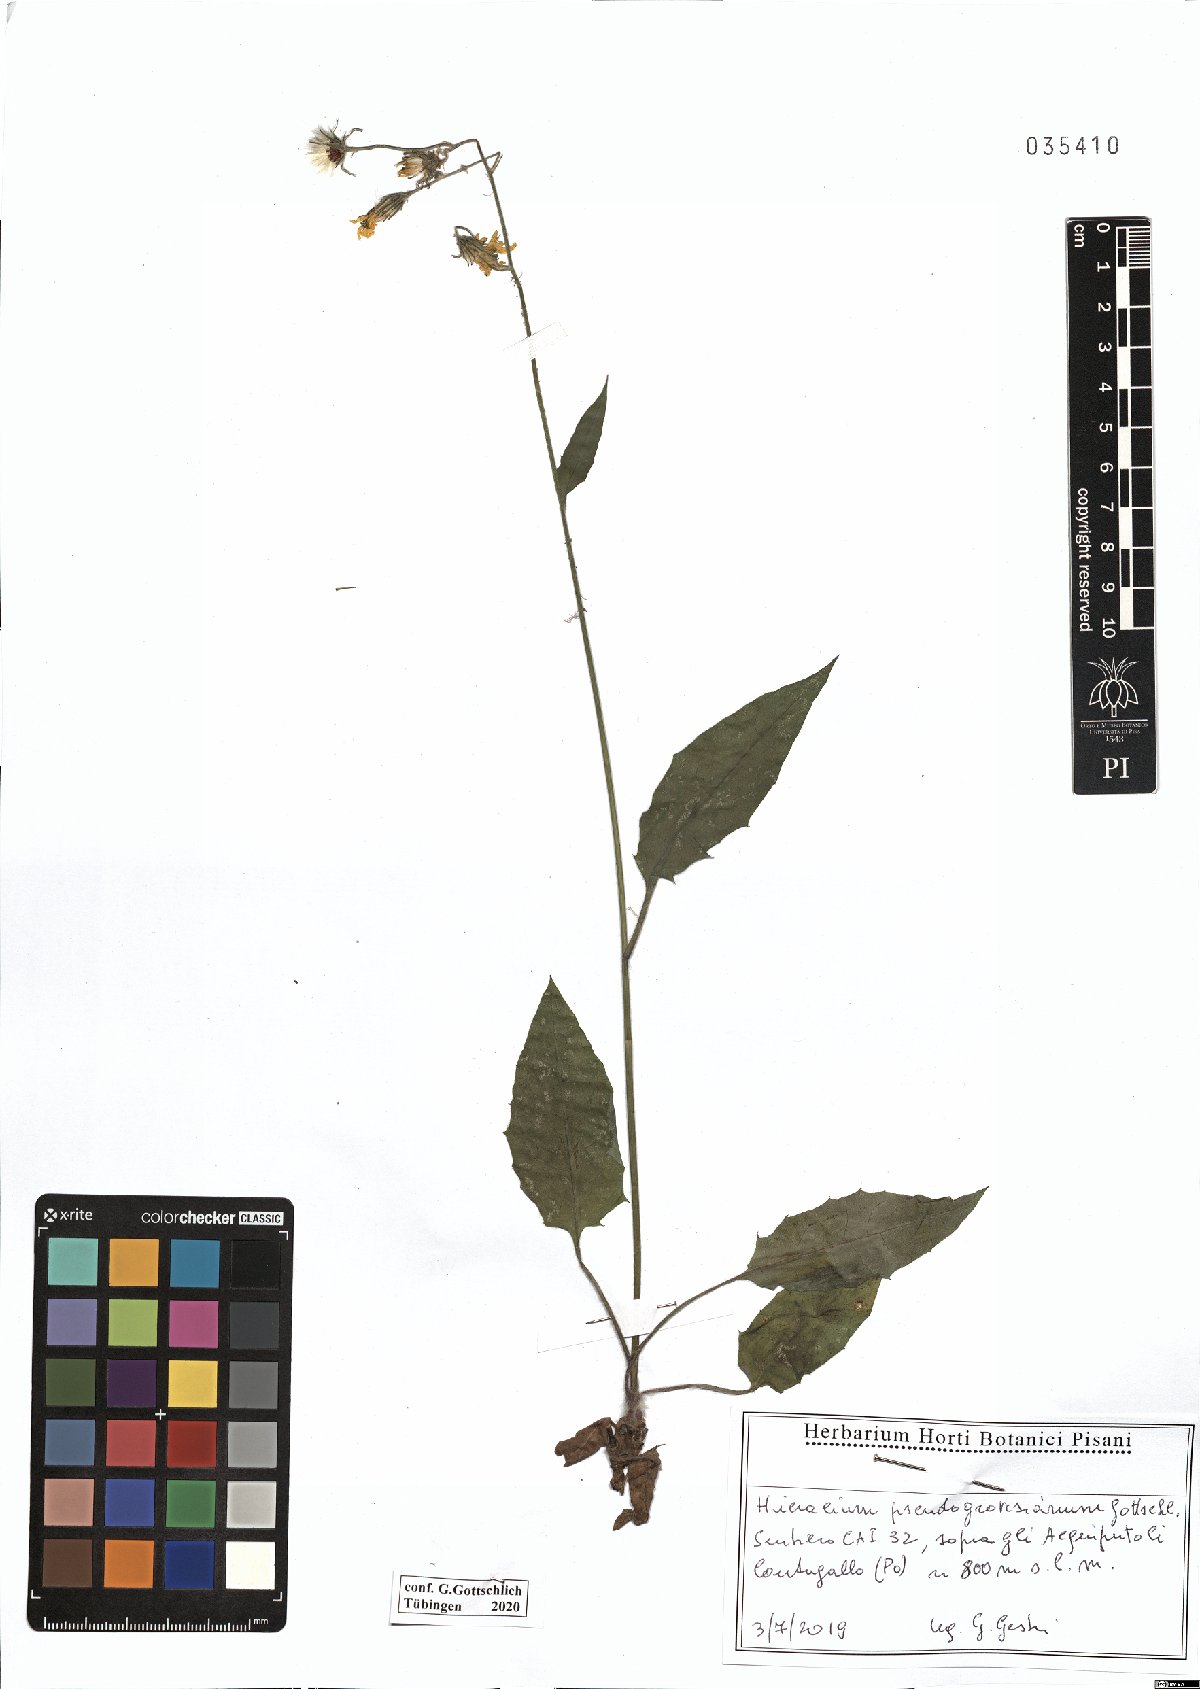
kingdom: Plantae
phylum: Tracheophyta
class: Magnoliopsida
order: Asterales
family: Asteraceae
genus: Hieracium
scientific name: Hieracium pseudogrovesianum
